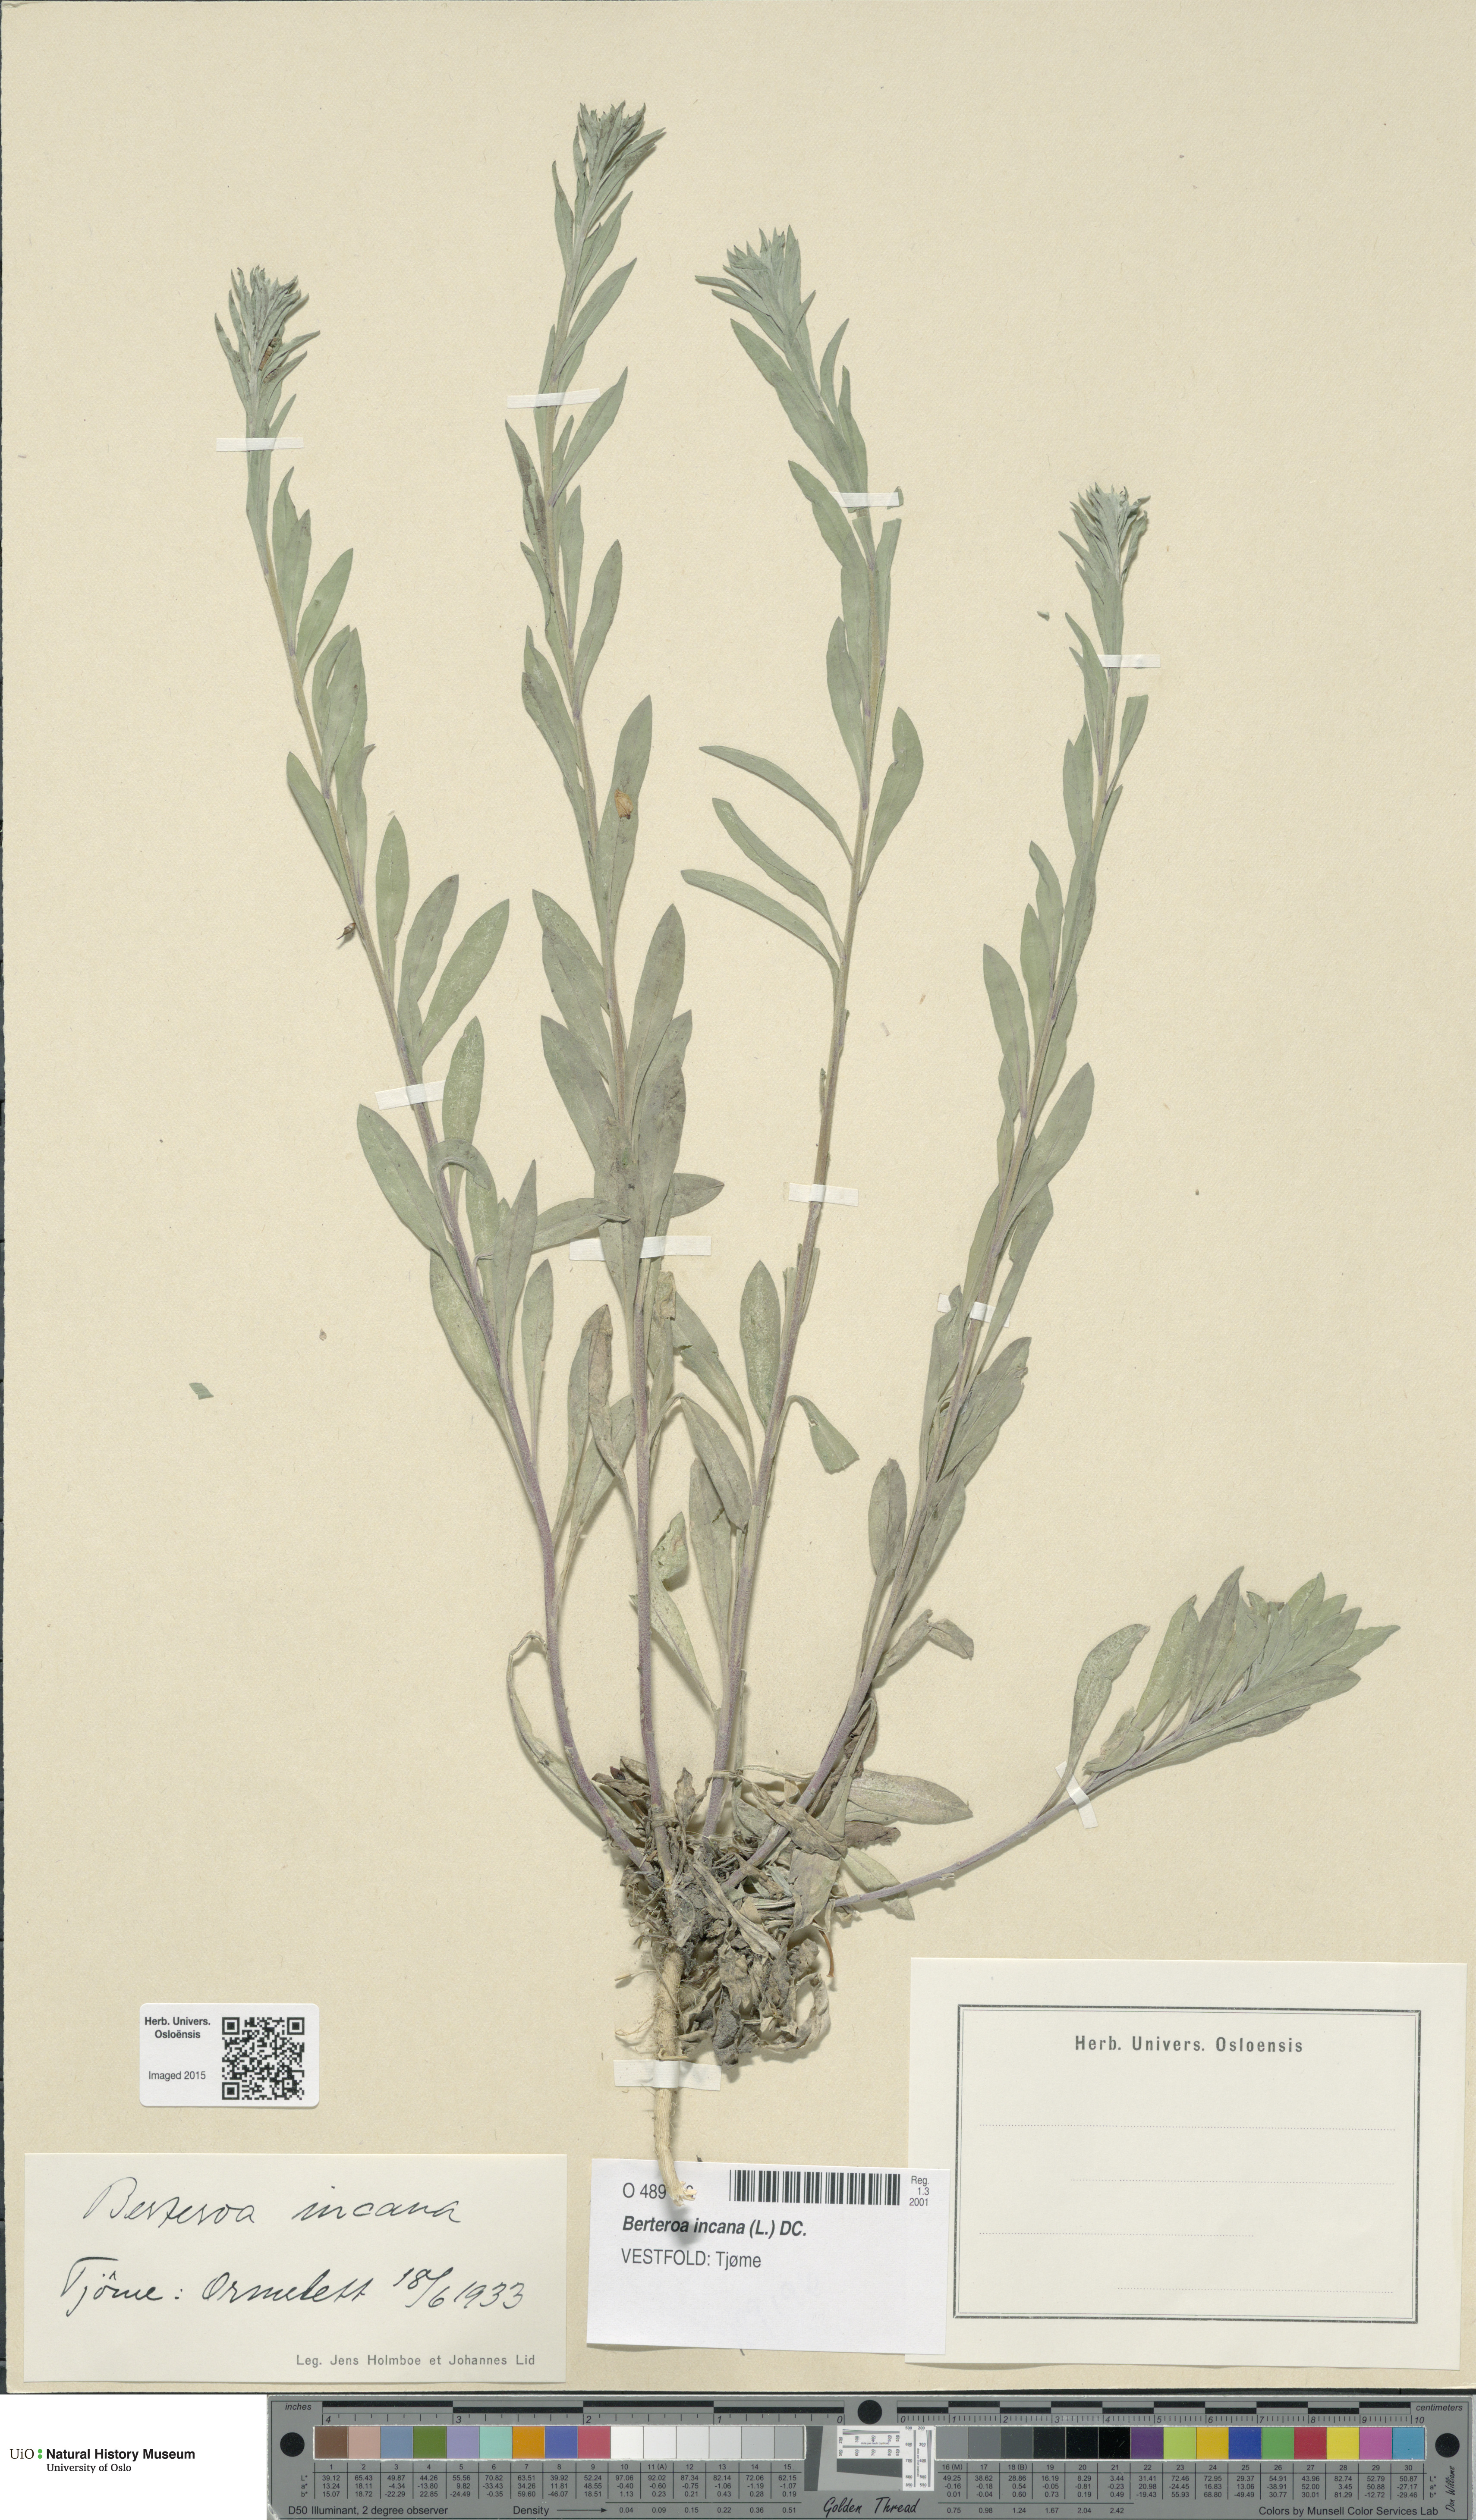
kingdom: Plantae
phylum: Tracheophyta
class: Magnoliopsida
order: Brassicales
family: Brassicaceae
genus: Berteroa
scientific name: Berteroa incana
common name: Hoary alison
